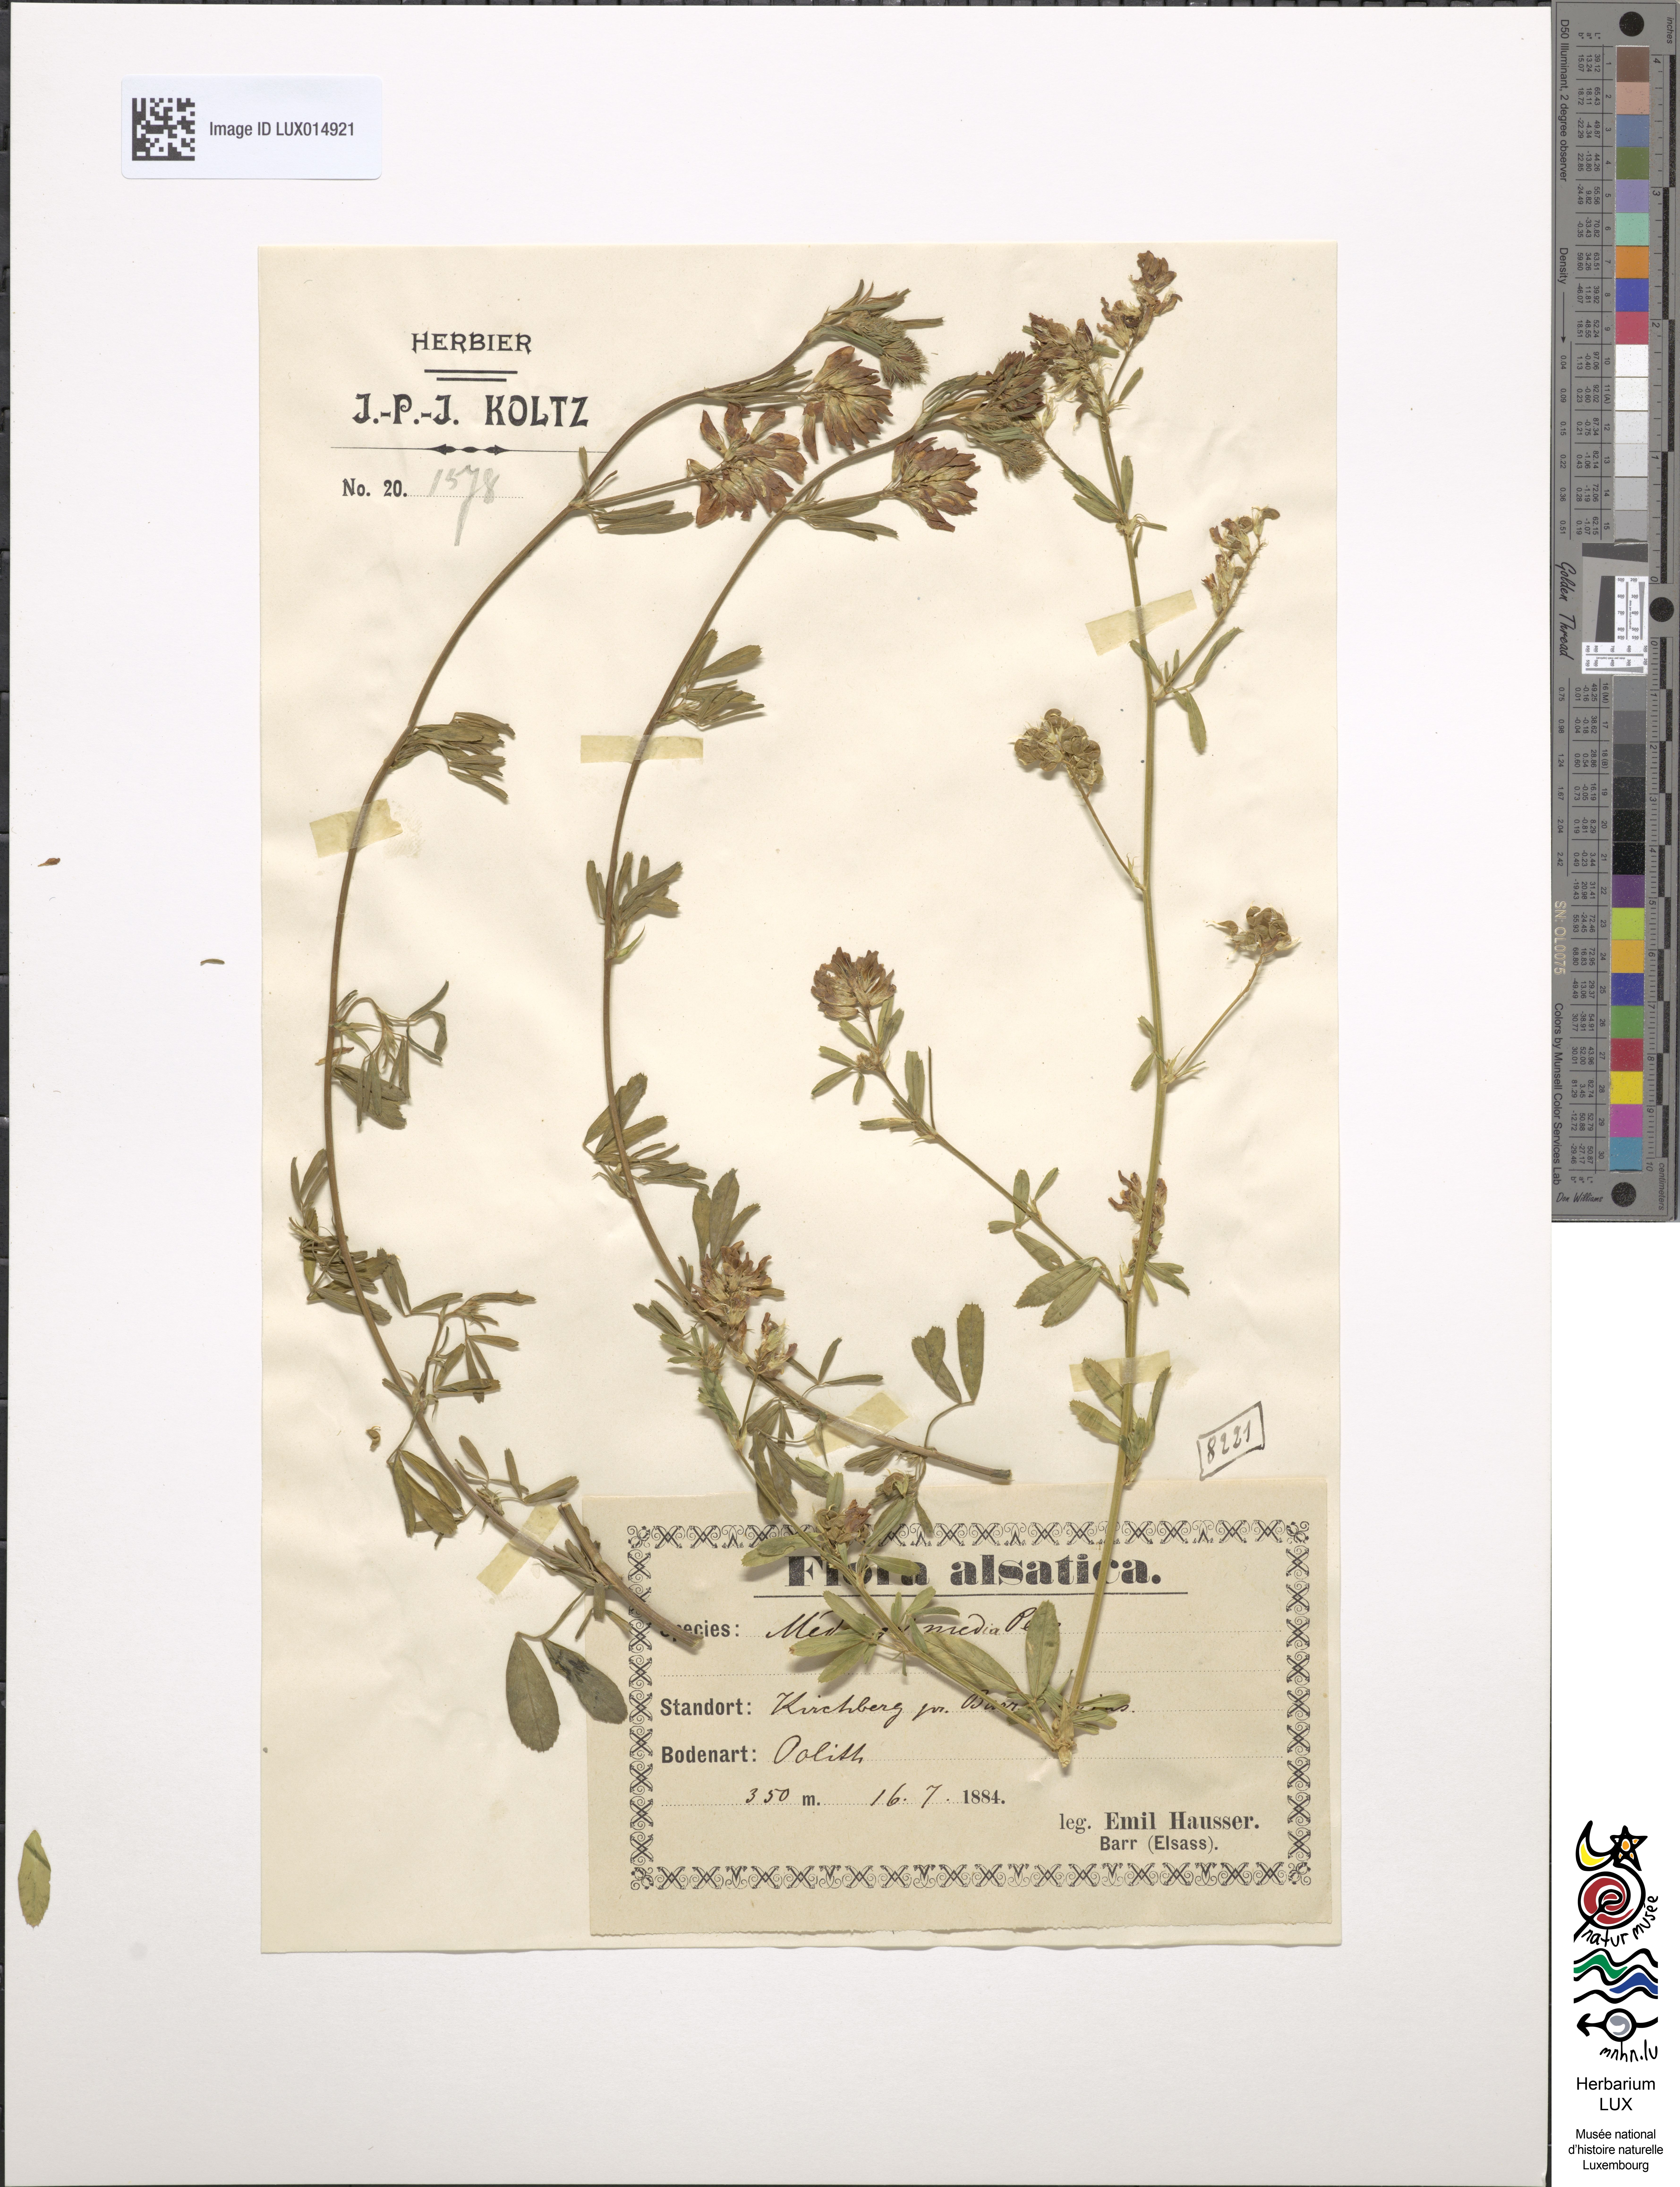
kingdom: Plantae
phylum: Tracheophyta
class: Magnoliopsida
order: Fabales
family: Fabaceae
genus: Medicago
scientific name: Medicago varia
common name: Sand lucerne
